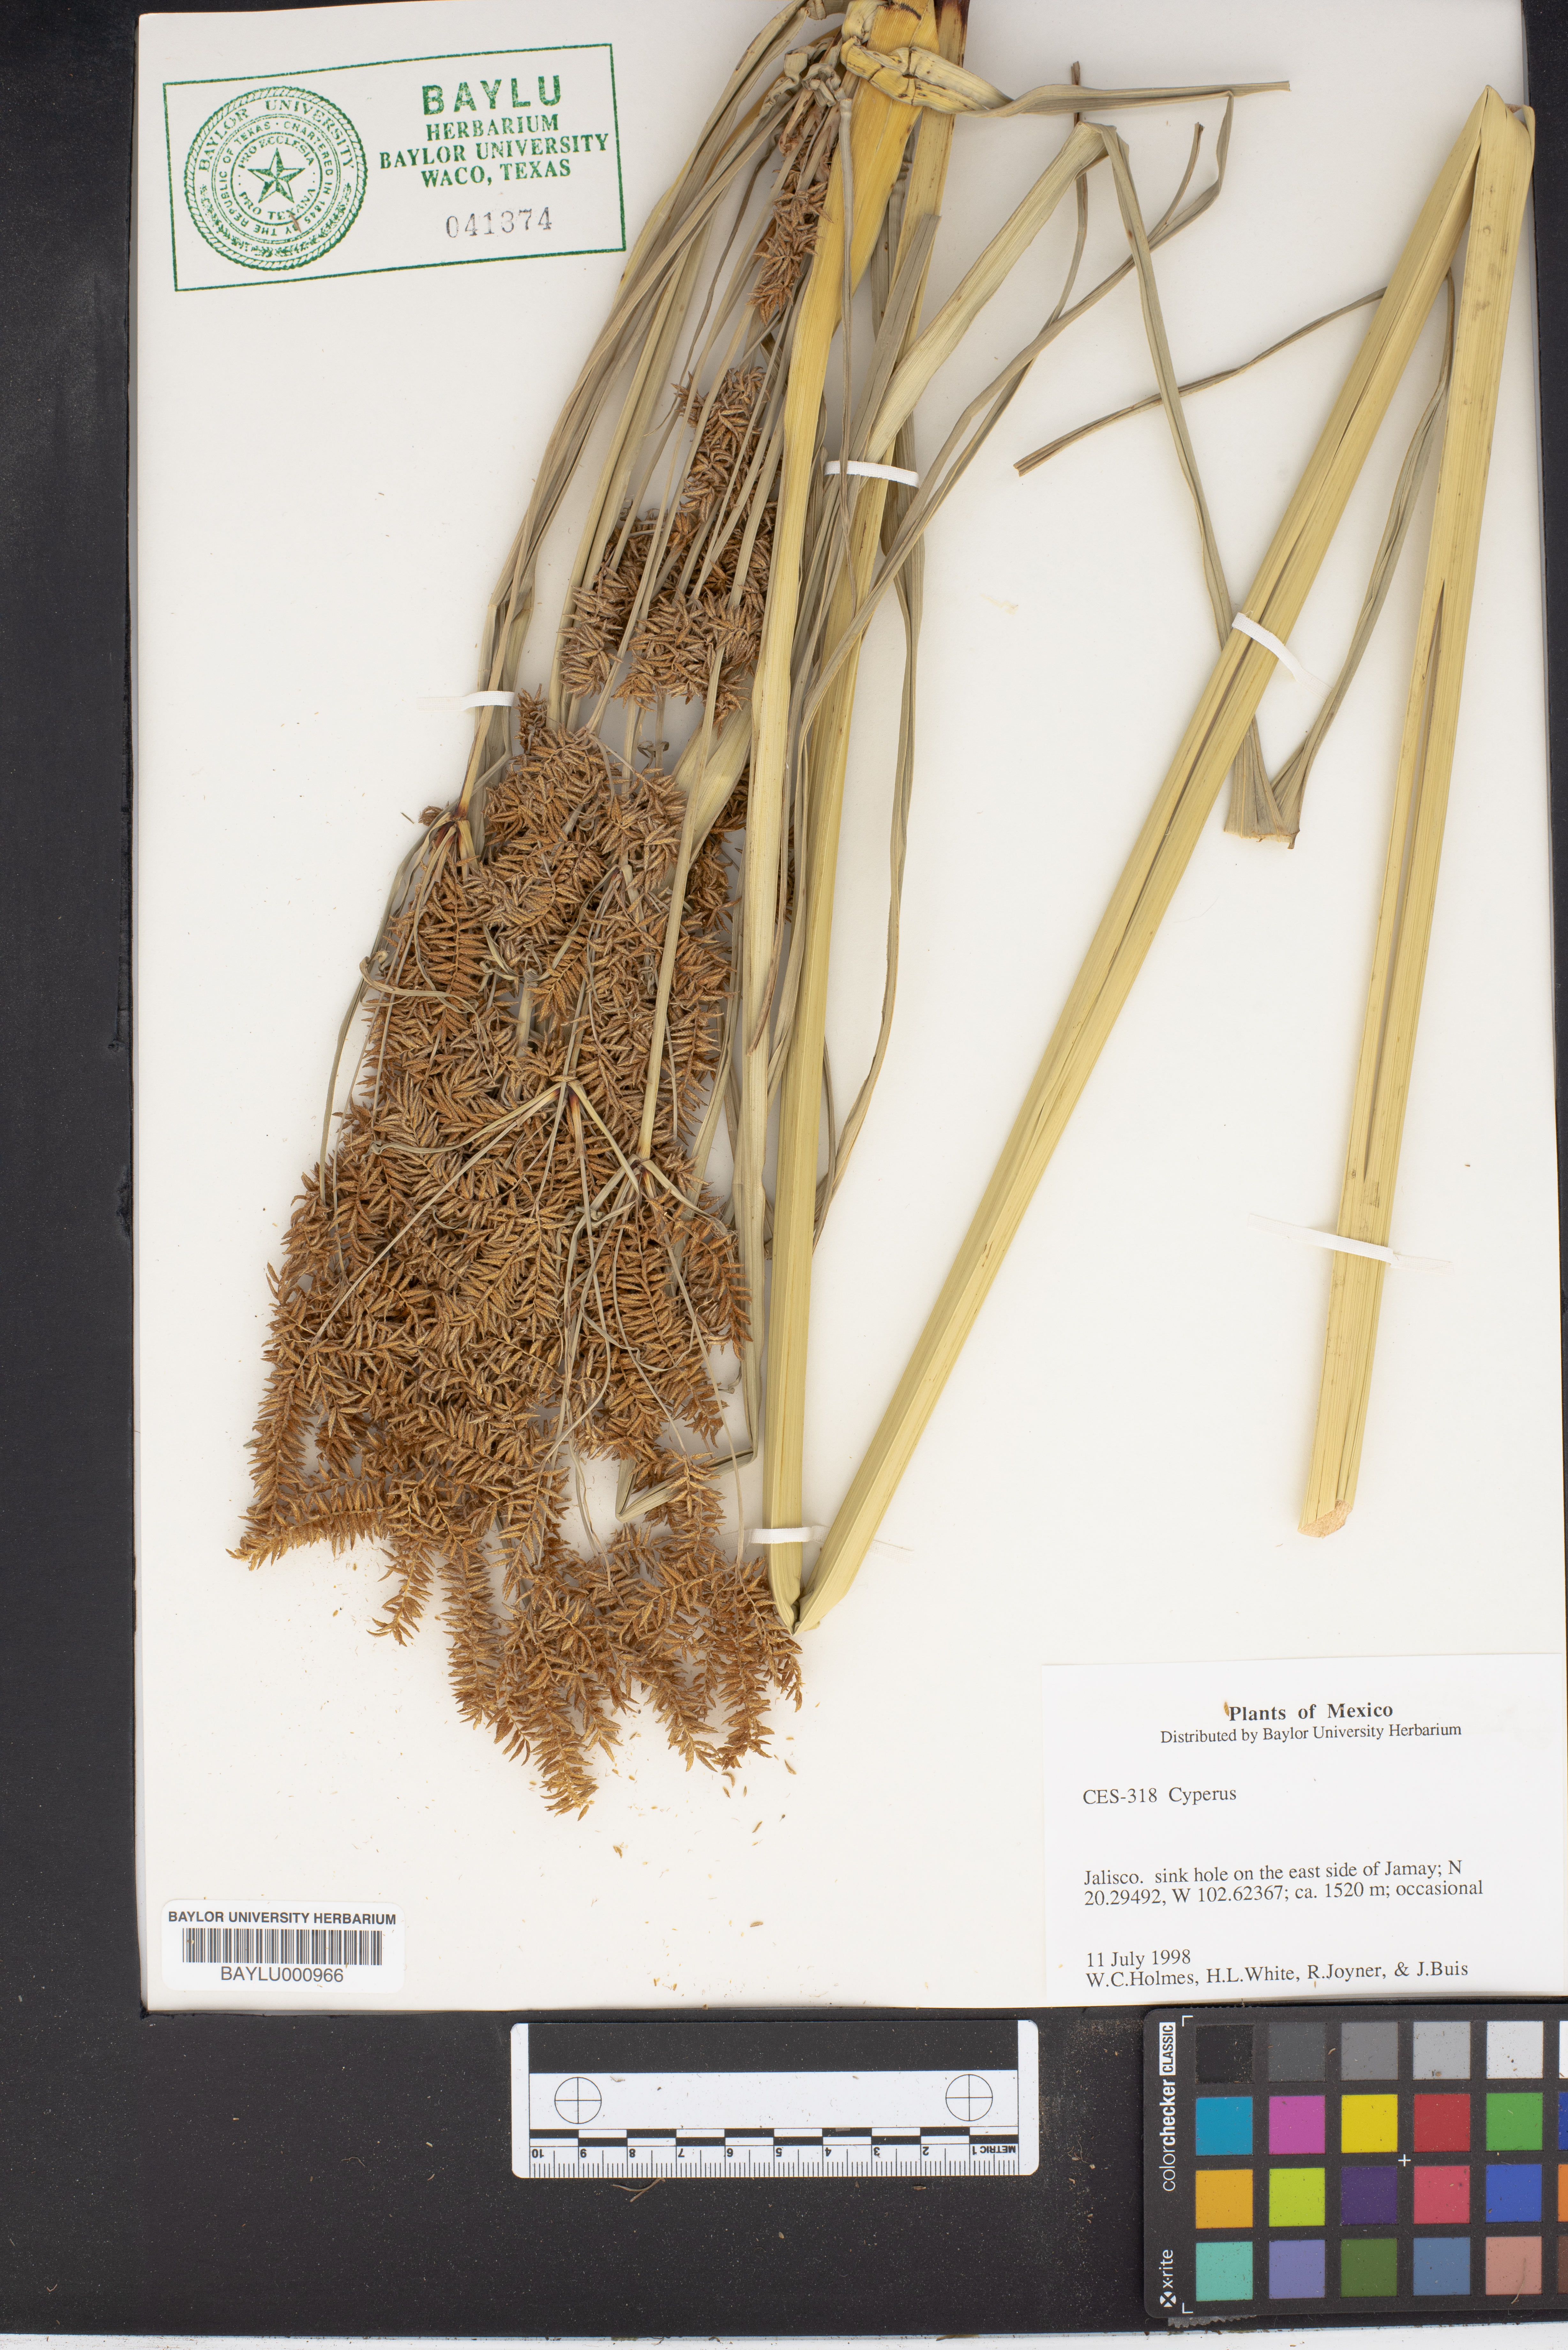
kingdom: Plantae
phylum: Tracheophyta
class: Liliopsida
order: Poales
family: Cyperaceae
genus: Cyperus
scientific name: Cyperus
